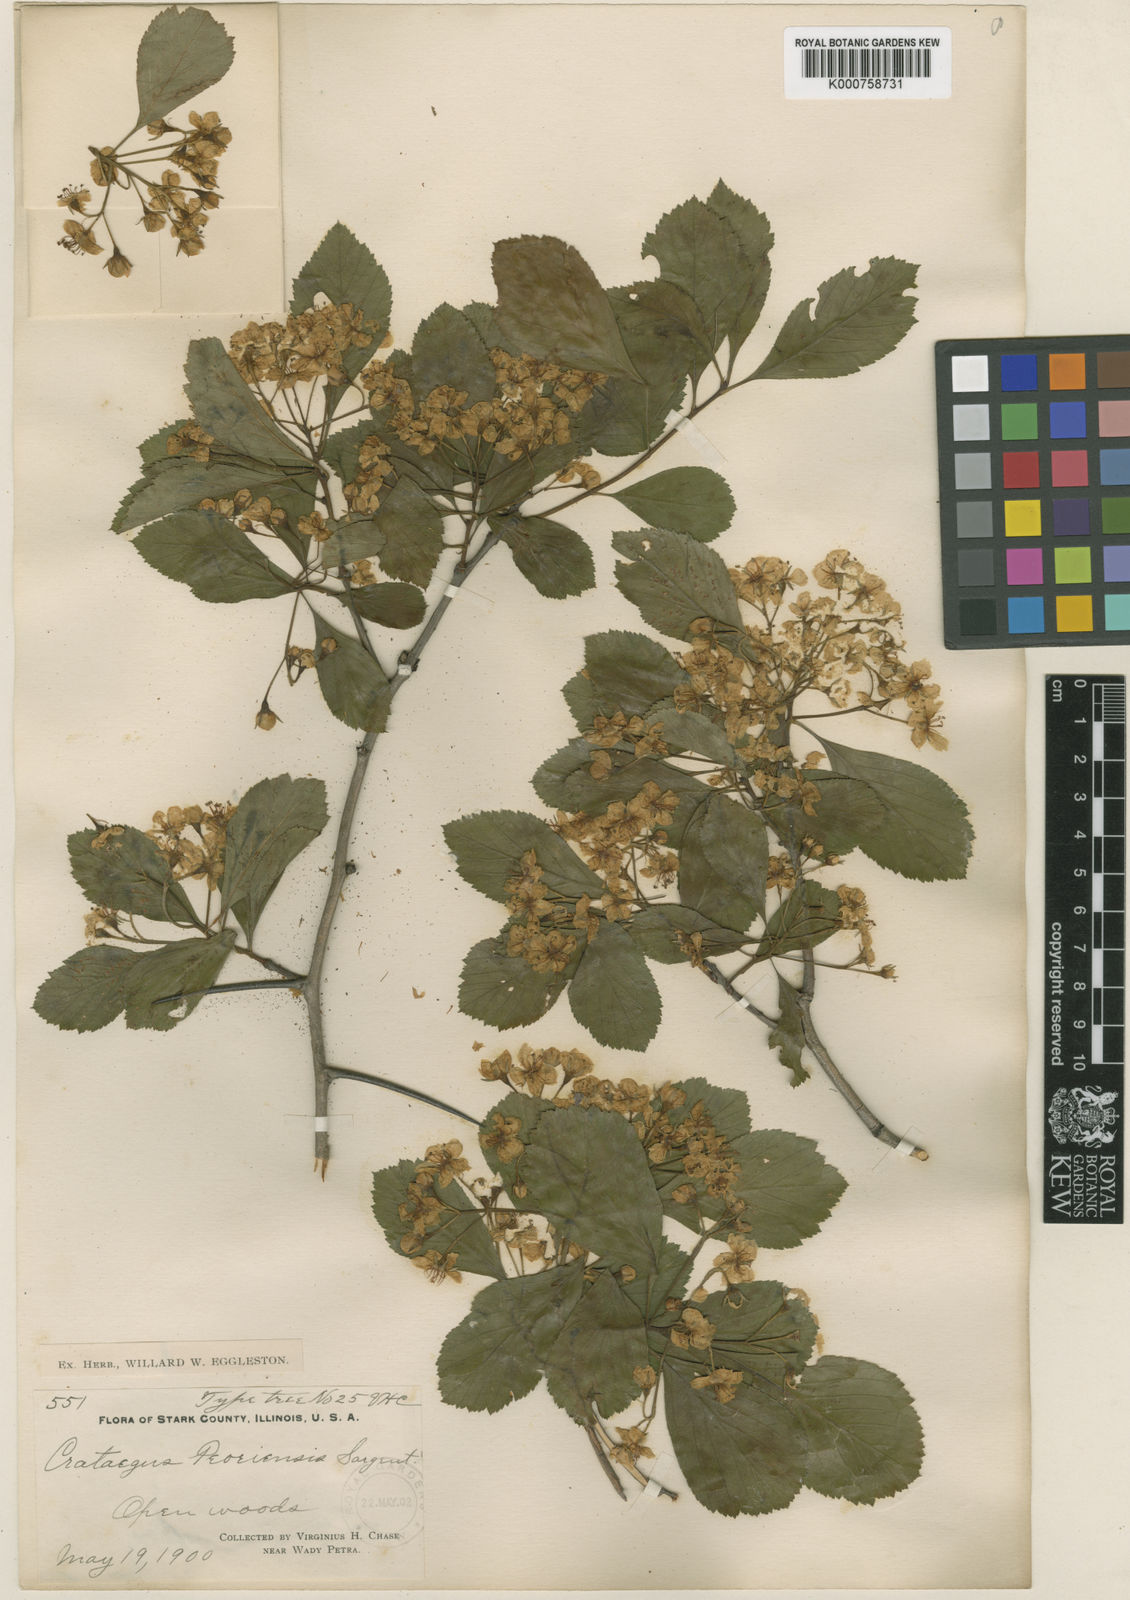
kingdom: Plantae
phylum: Tracheophyta
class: Magnoliopsida
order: Rosales
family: Rosaceae
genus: Crataegus
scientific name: Crataegus disperma
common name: Spreading hawthorn
